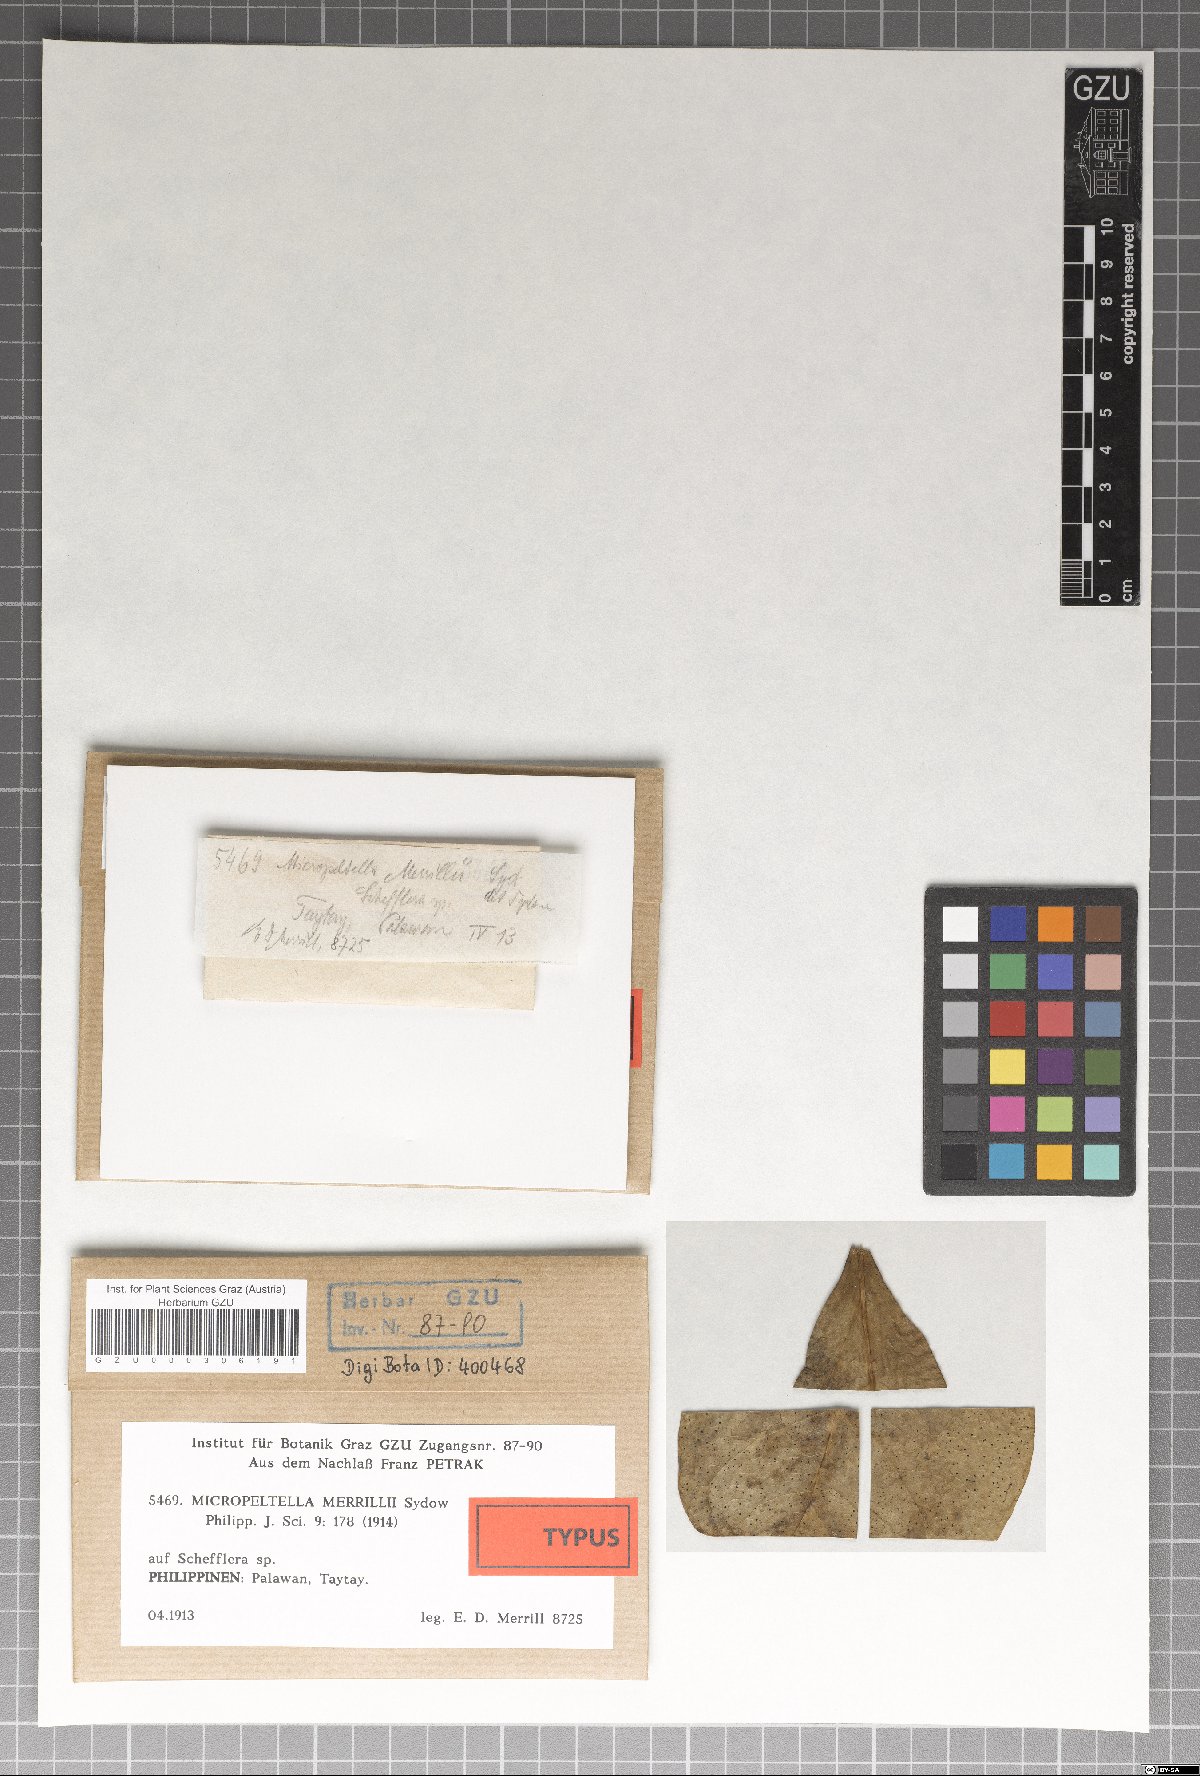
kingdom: Fungi
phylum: Ascomycota
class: Dothideomycetes
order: Microthyriales
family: Micropeltidaceae
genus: Micropeltella
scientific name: Micropeltella merrillii
